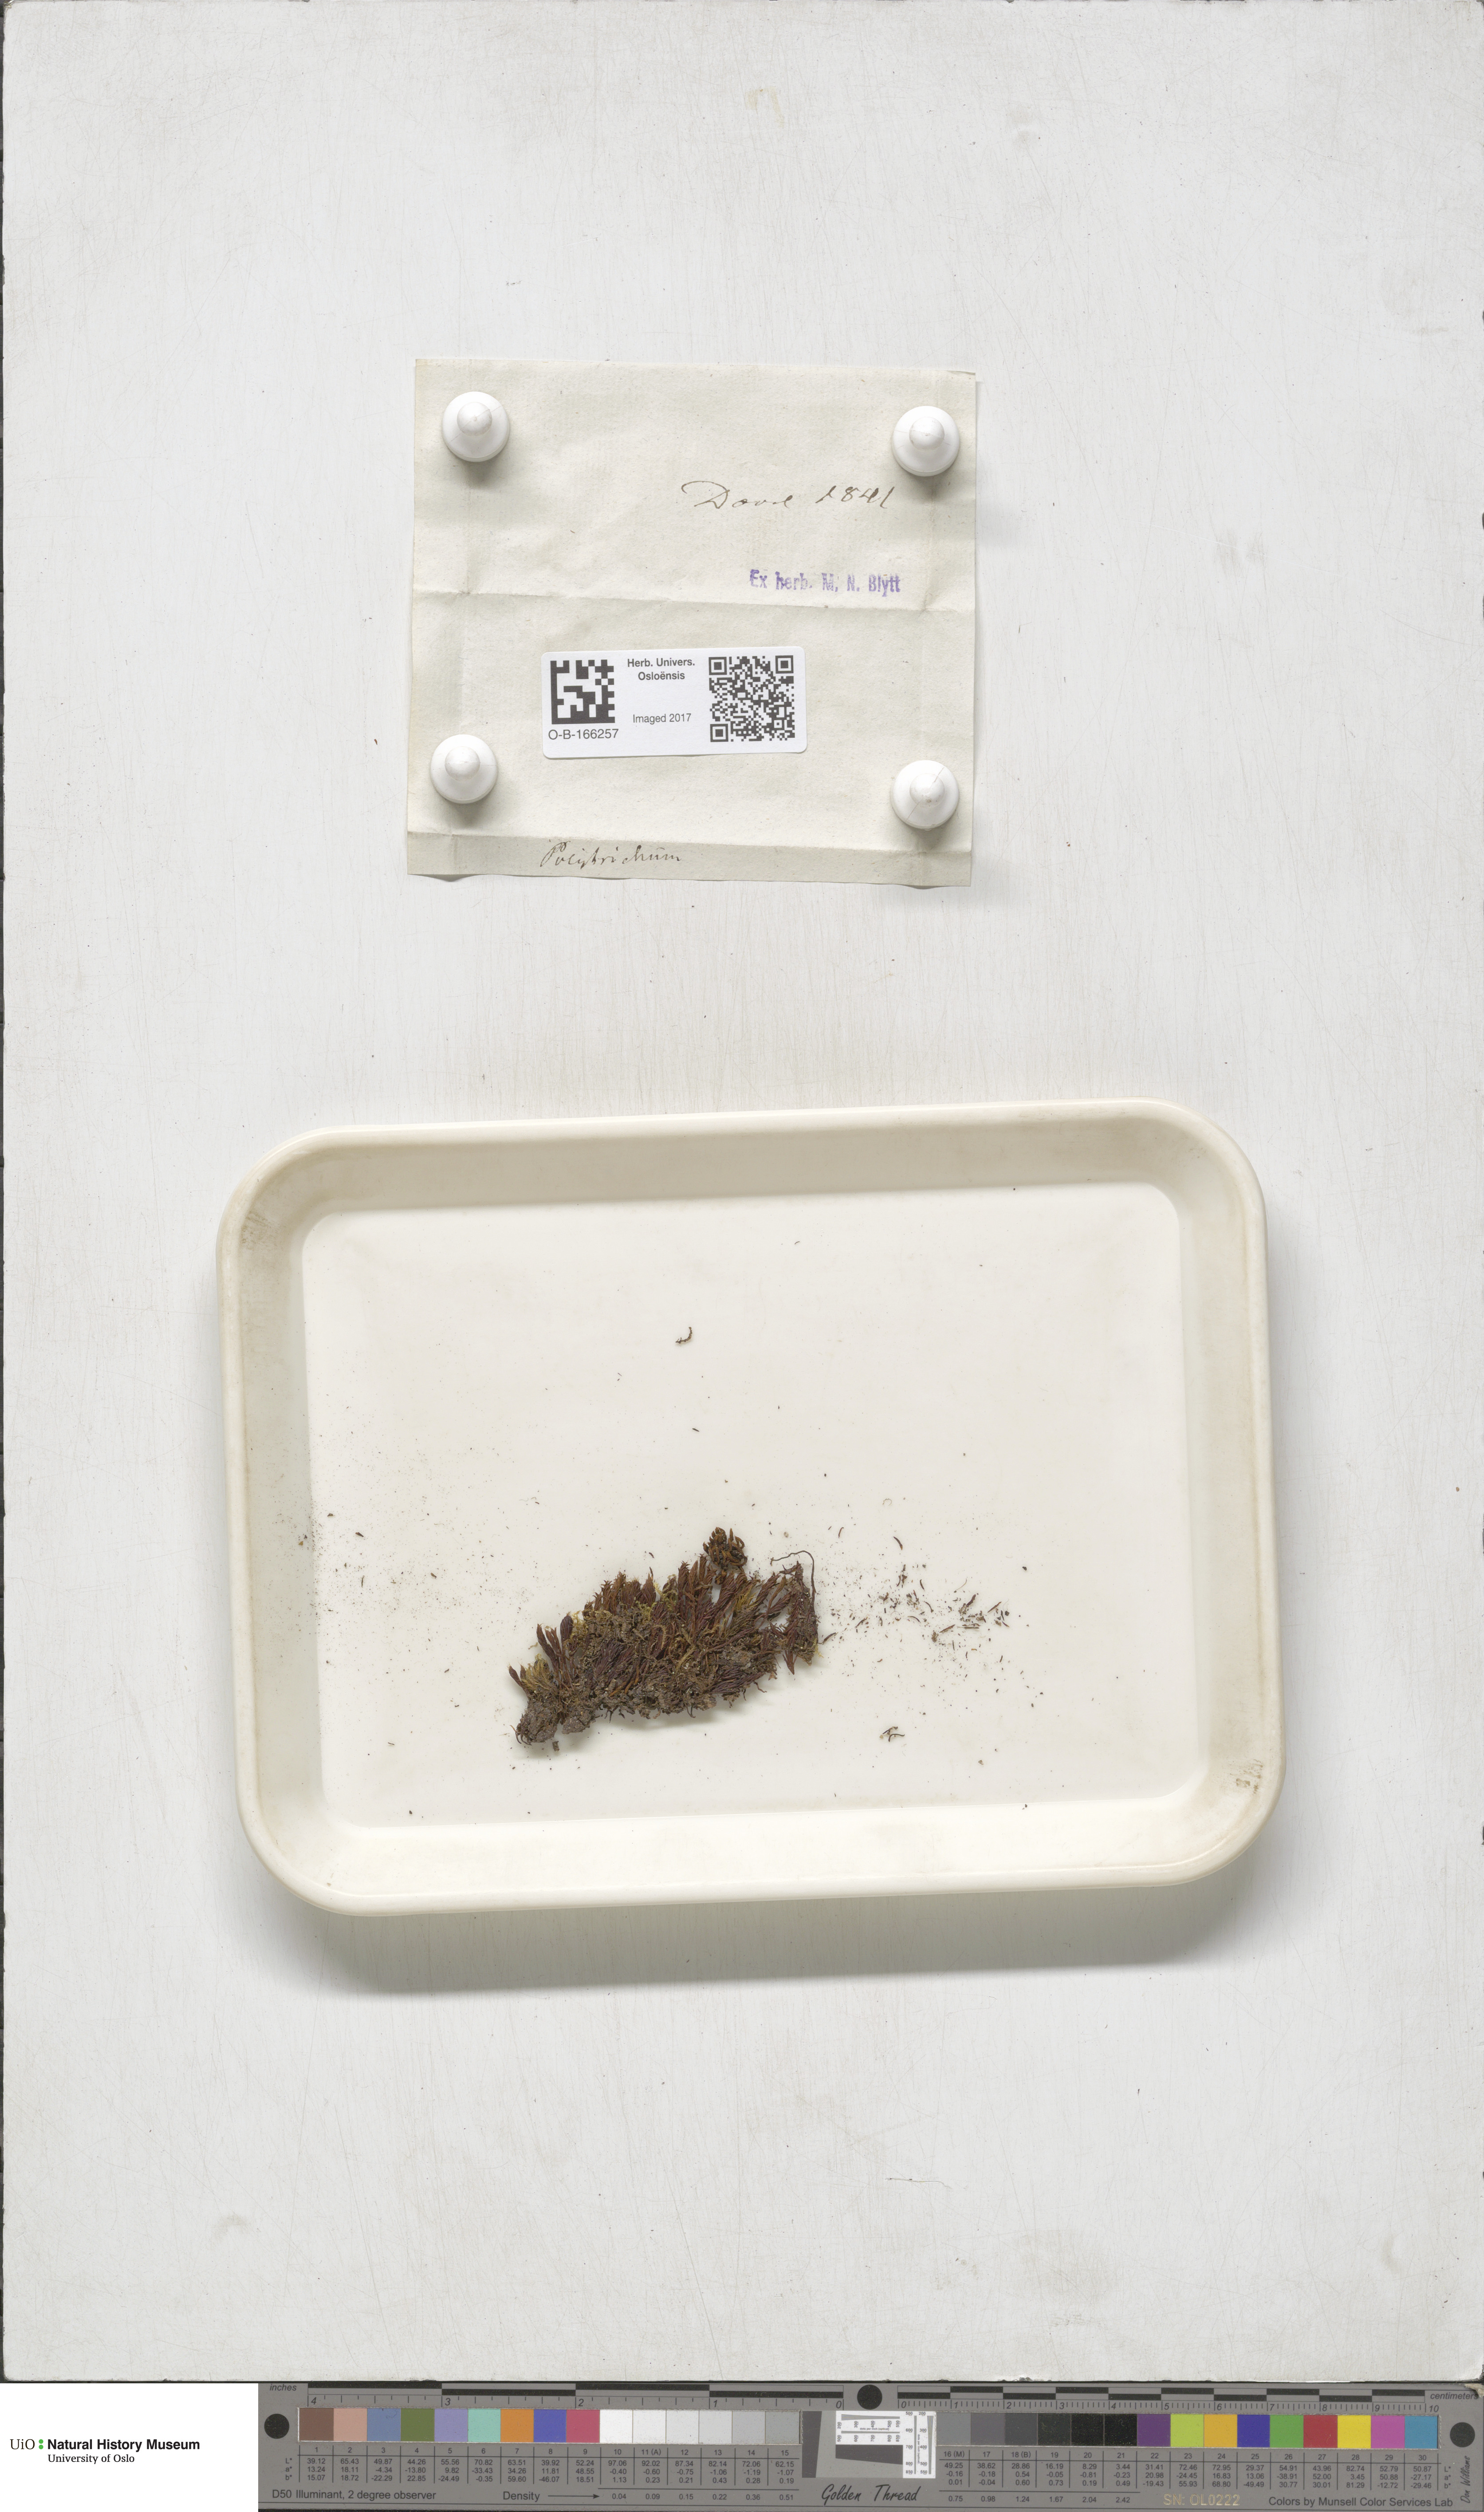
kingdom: Plantae
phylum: Bryophyta
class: Polytrichopsida
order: Polytrichales
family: Polytrichaceae
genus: Polytrichum
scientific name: Polytrichum
